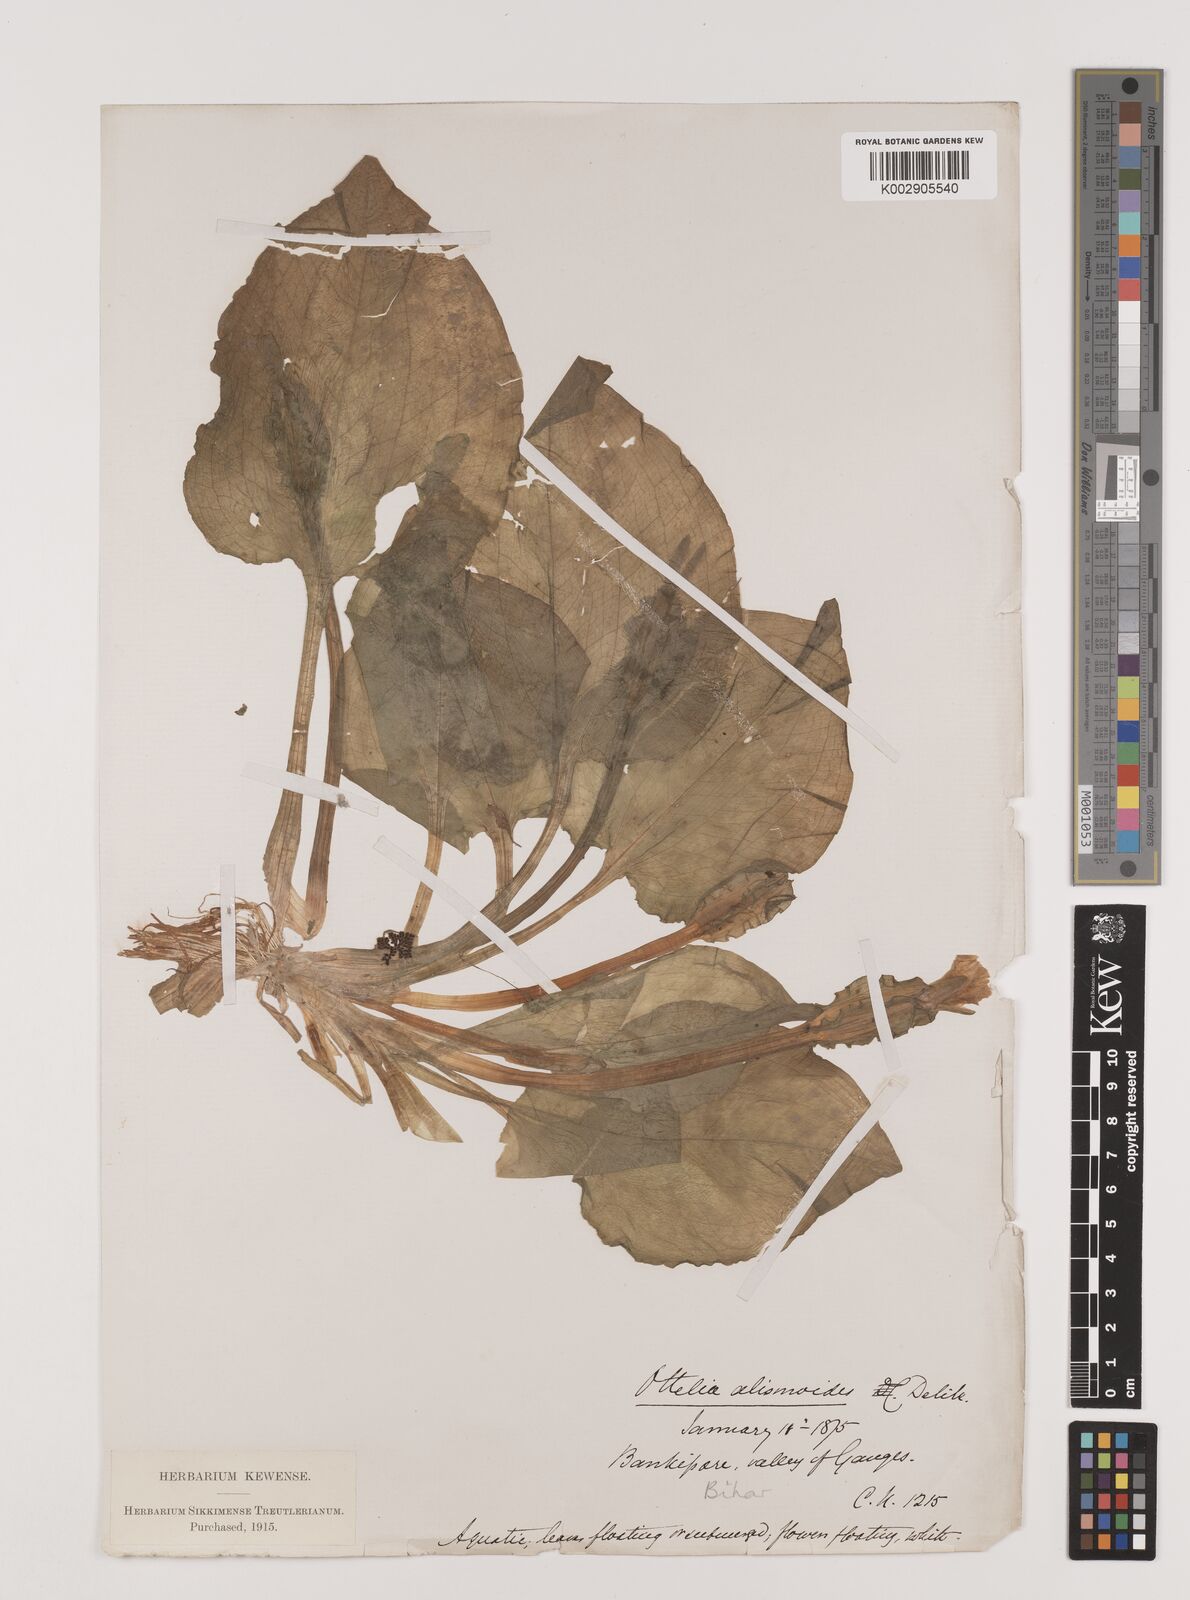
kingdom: Plantae
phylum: Tracheophyta
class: Liliopsida
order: Alismatales
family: Hydrocharitaceae
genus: Ottelia
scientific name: Ottelia alismoides
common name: Duck-lettuce
